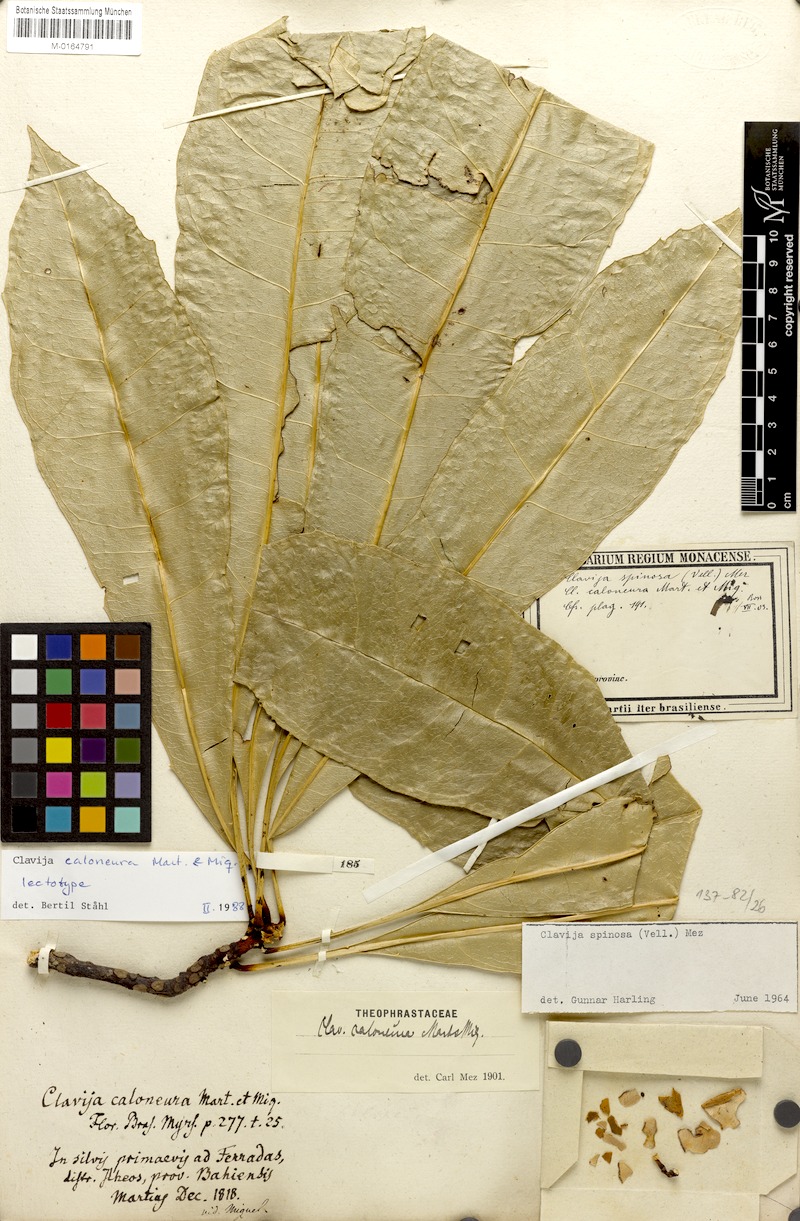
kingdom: Plantae
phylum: Tracheophyta
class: Magnoliopsida
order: Ericales
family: Primulaceae
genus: Clavija
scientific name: Clavija caloneura
